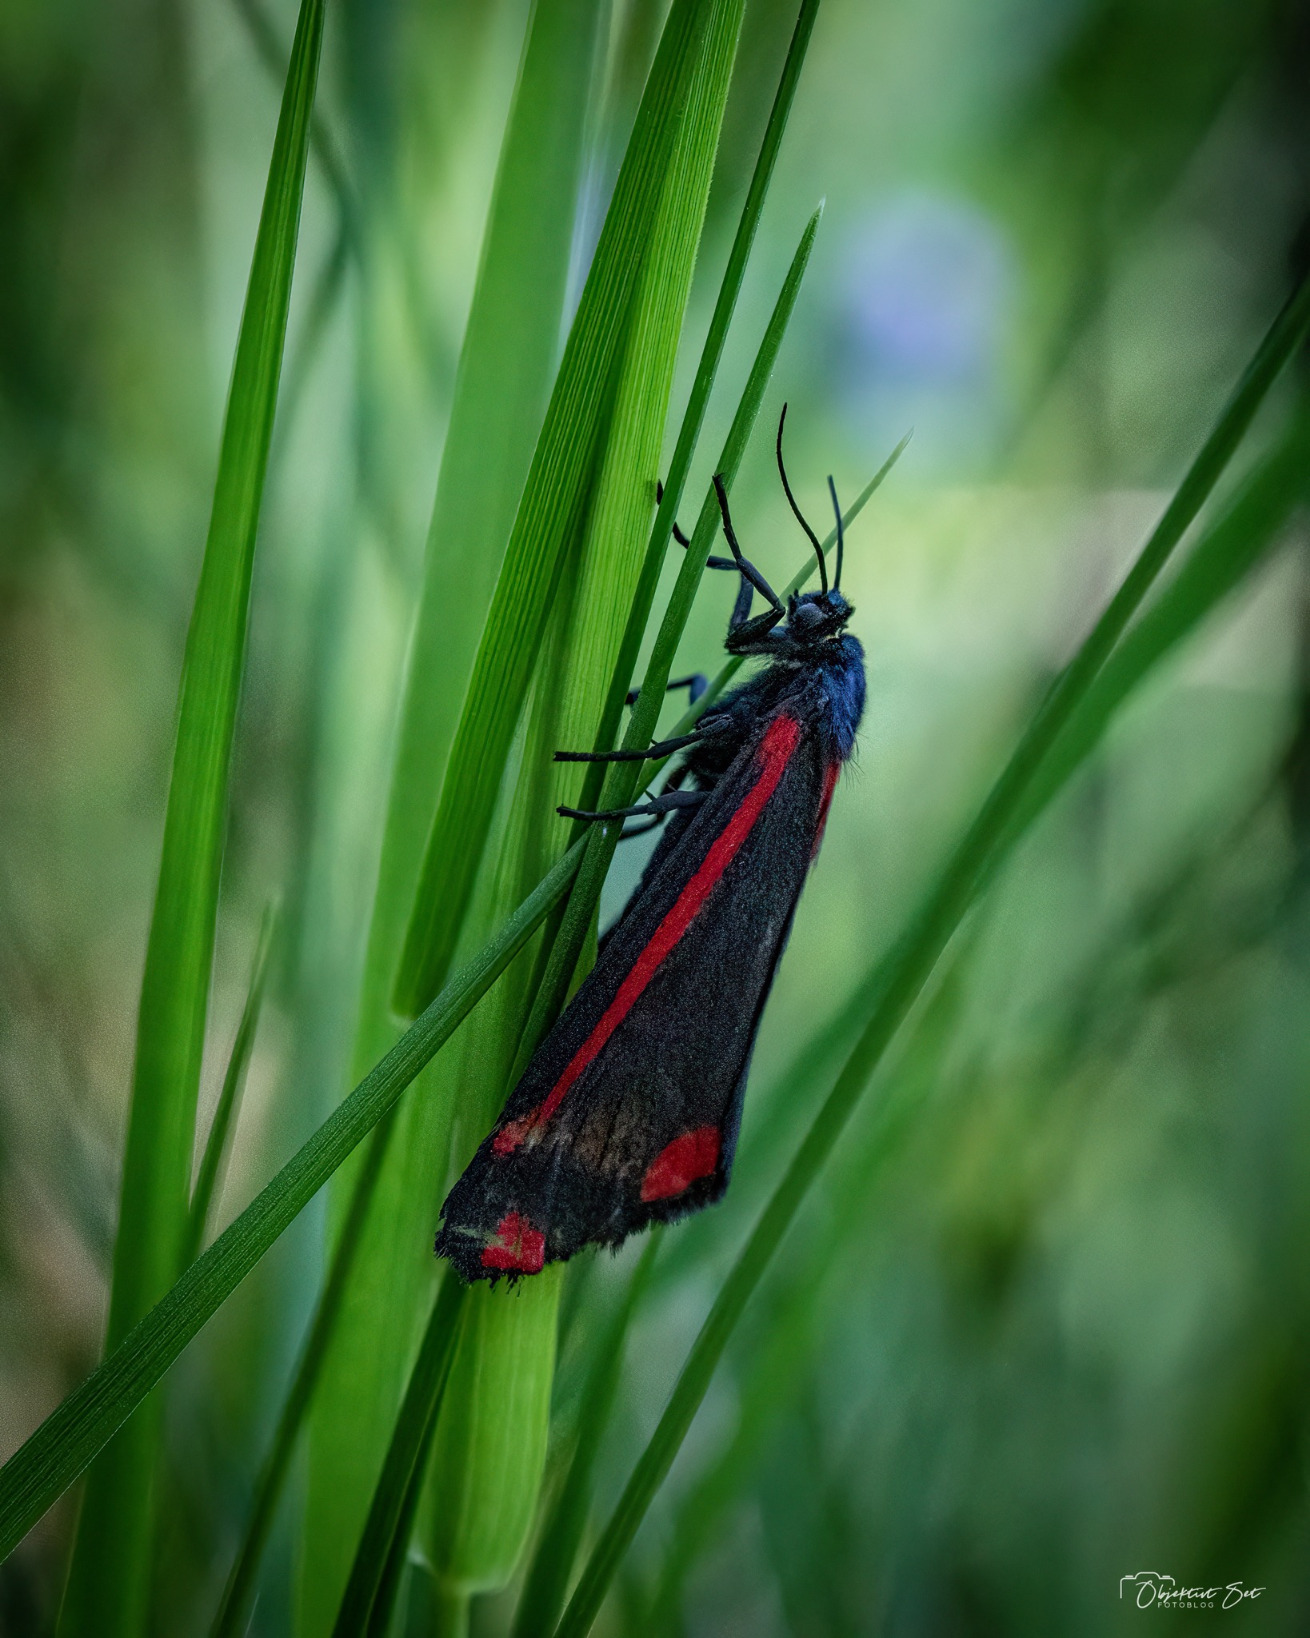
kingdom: Animalia
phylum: Arthropoda
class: Insecta
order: Lepidoptera
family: Erebidae
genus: Tyria
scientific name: Tyria jacobaeae
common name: Blodplet
